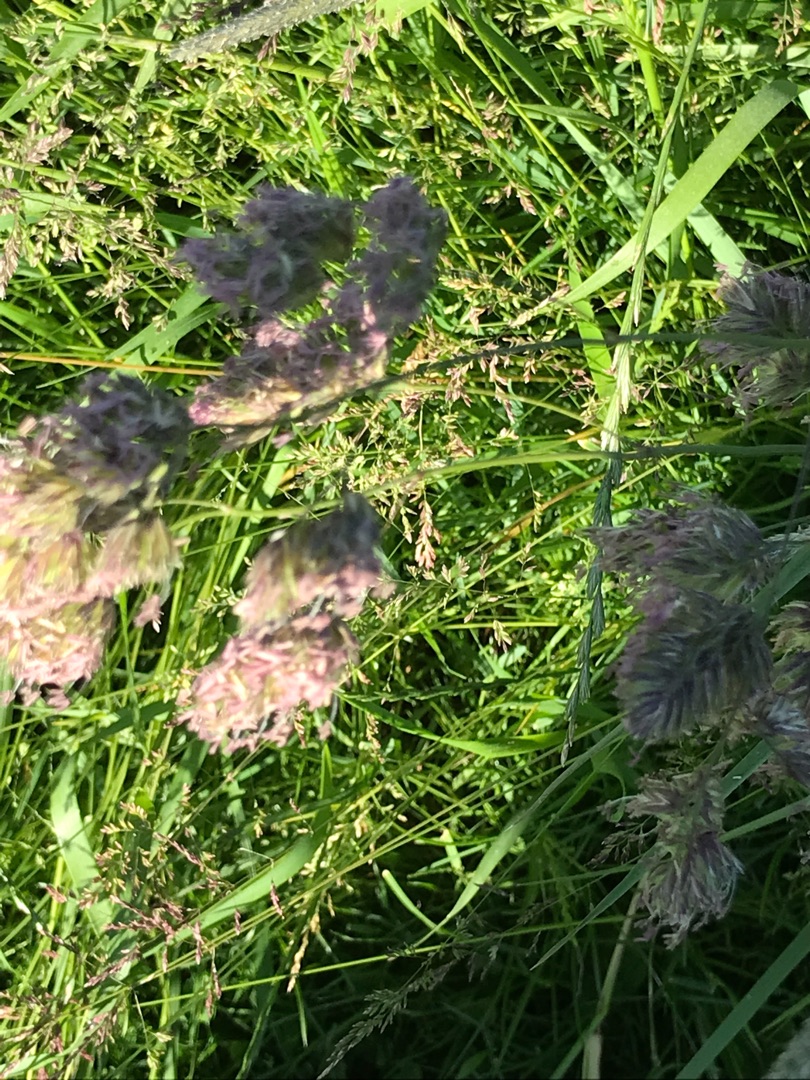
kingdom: Plantae
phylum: Tracheophyta
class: Liliopsida
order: Poales
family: Poaceae
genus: Dactylis
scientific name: Dactylis glomerata
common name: Almindelig hundegræs
